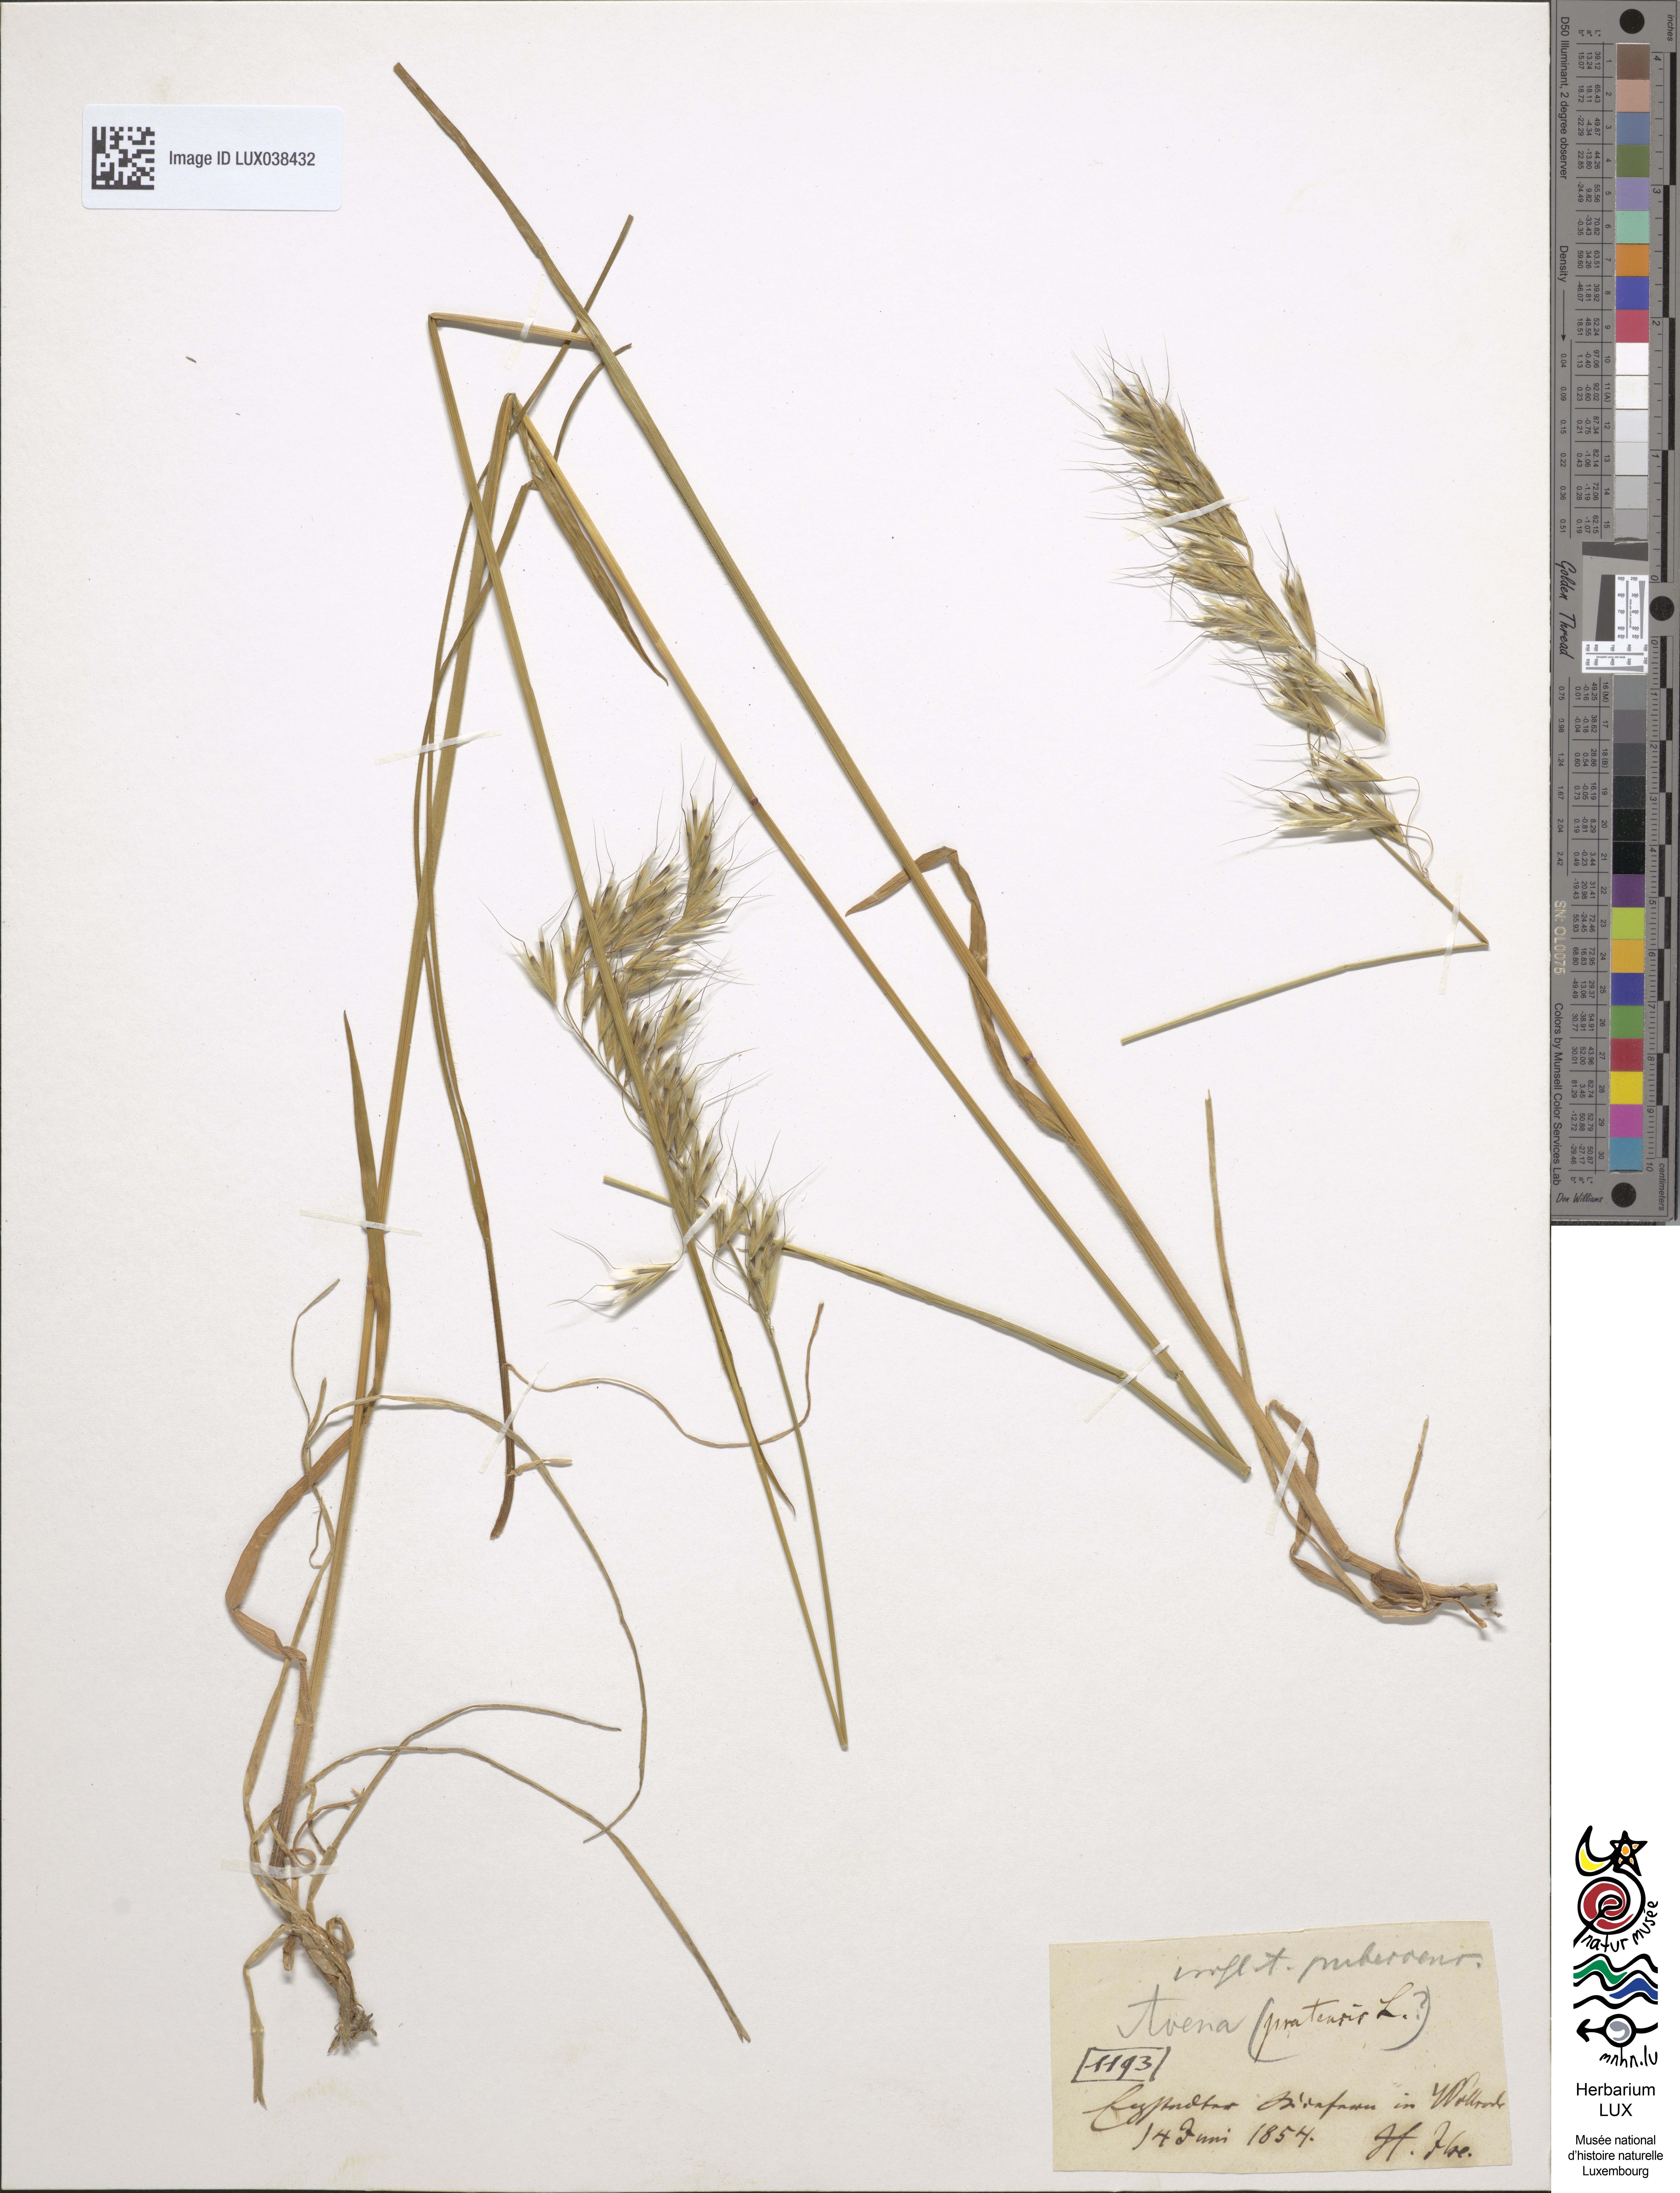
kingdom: Plantae
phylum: Tracheophyta
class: Liliopsida
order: Poales
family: Poaceae
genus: Avenula
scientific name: Avenula pubescens
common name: Downy alpine oatgrass
